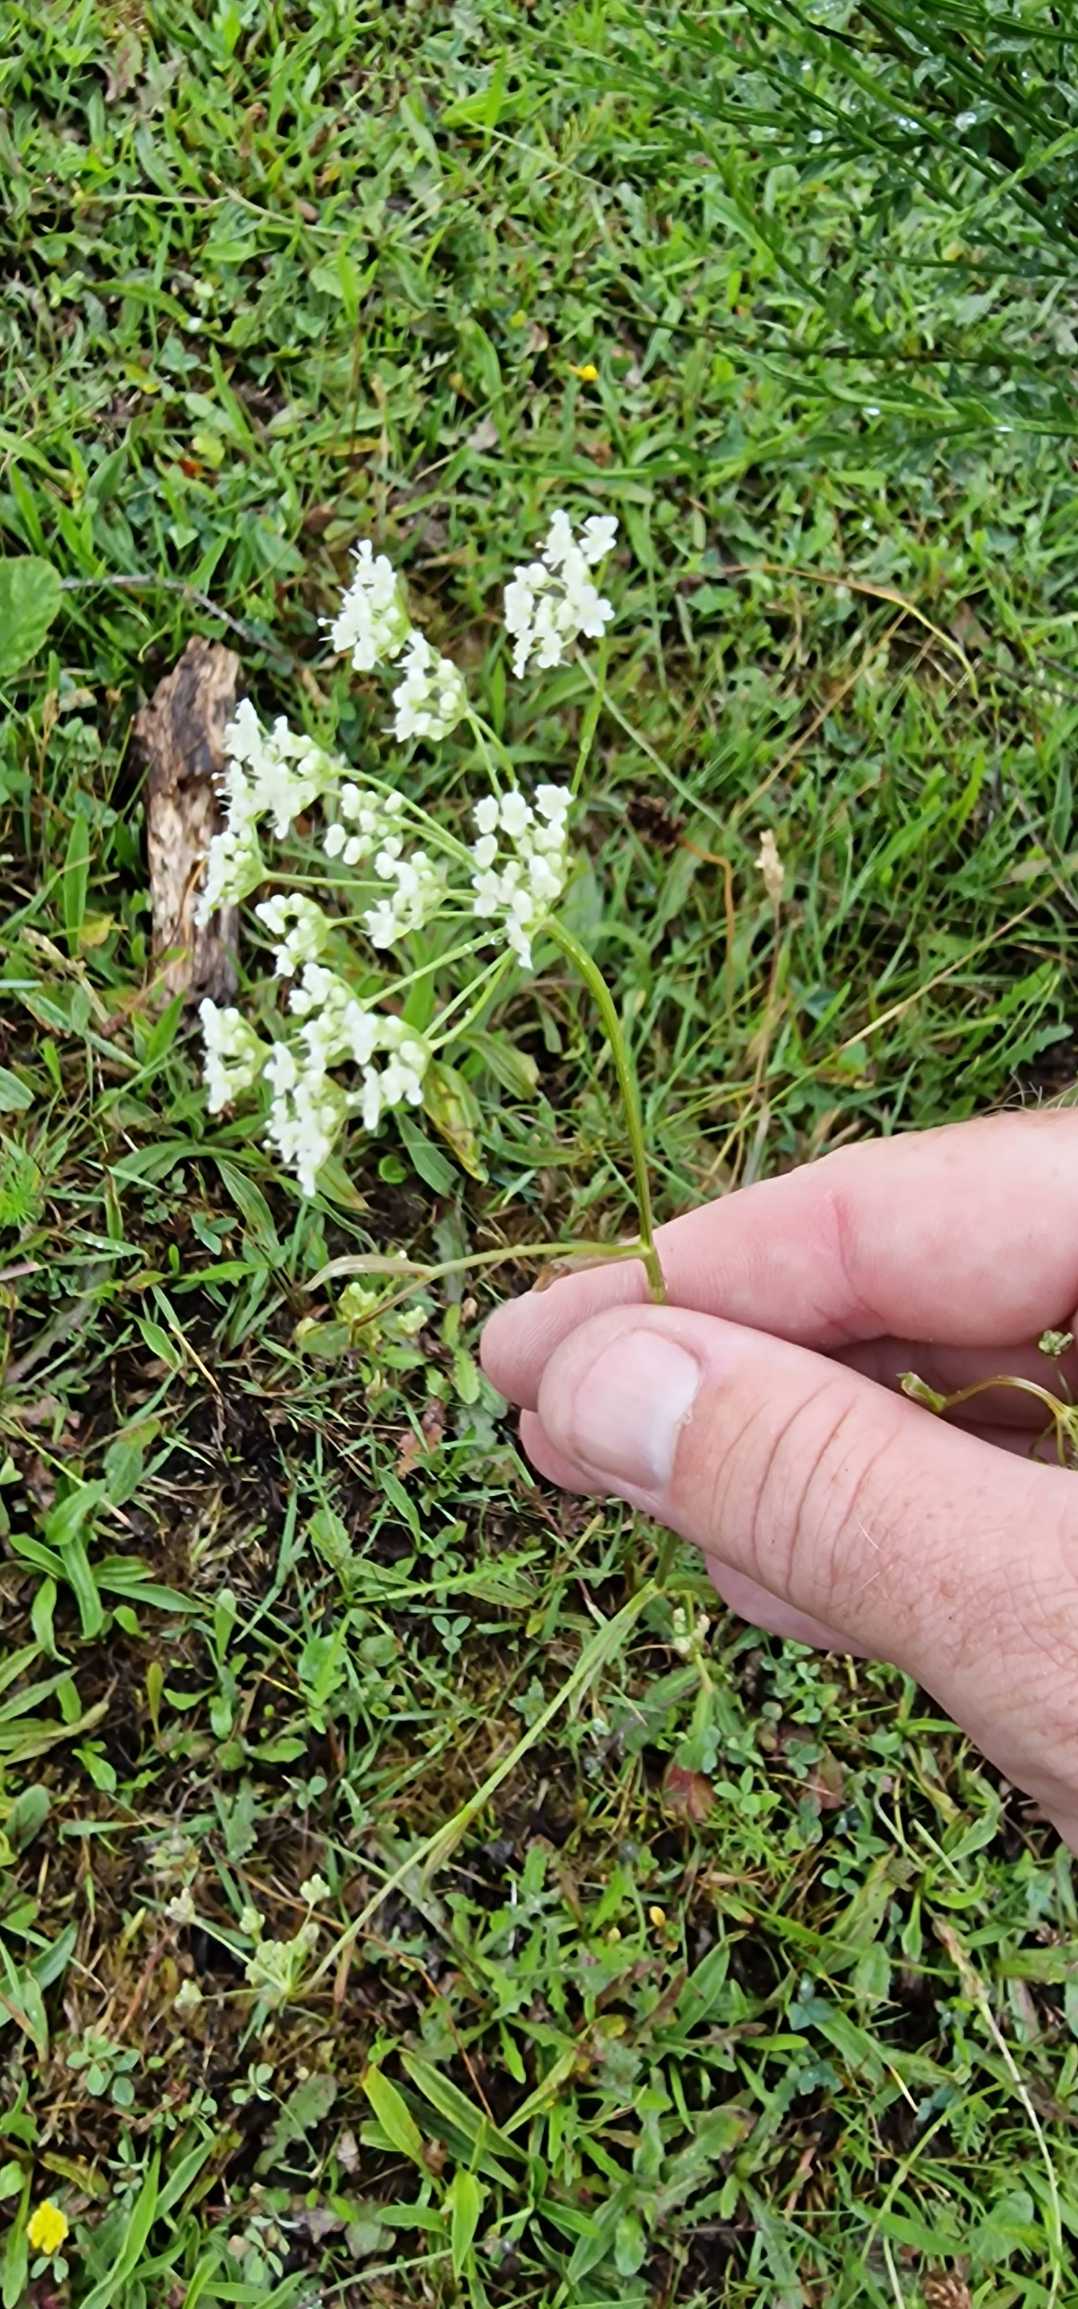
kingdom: Plantae
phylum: Tracheophyta
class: Magnoliopsida
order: Apiales
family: Apiaceae
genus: Pimpinella
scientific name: Pimpinella saxifraga
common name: Almindelig pimpinelle
